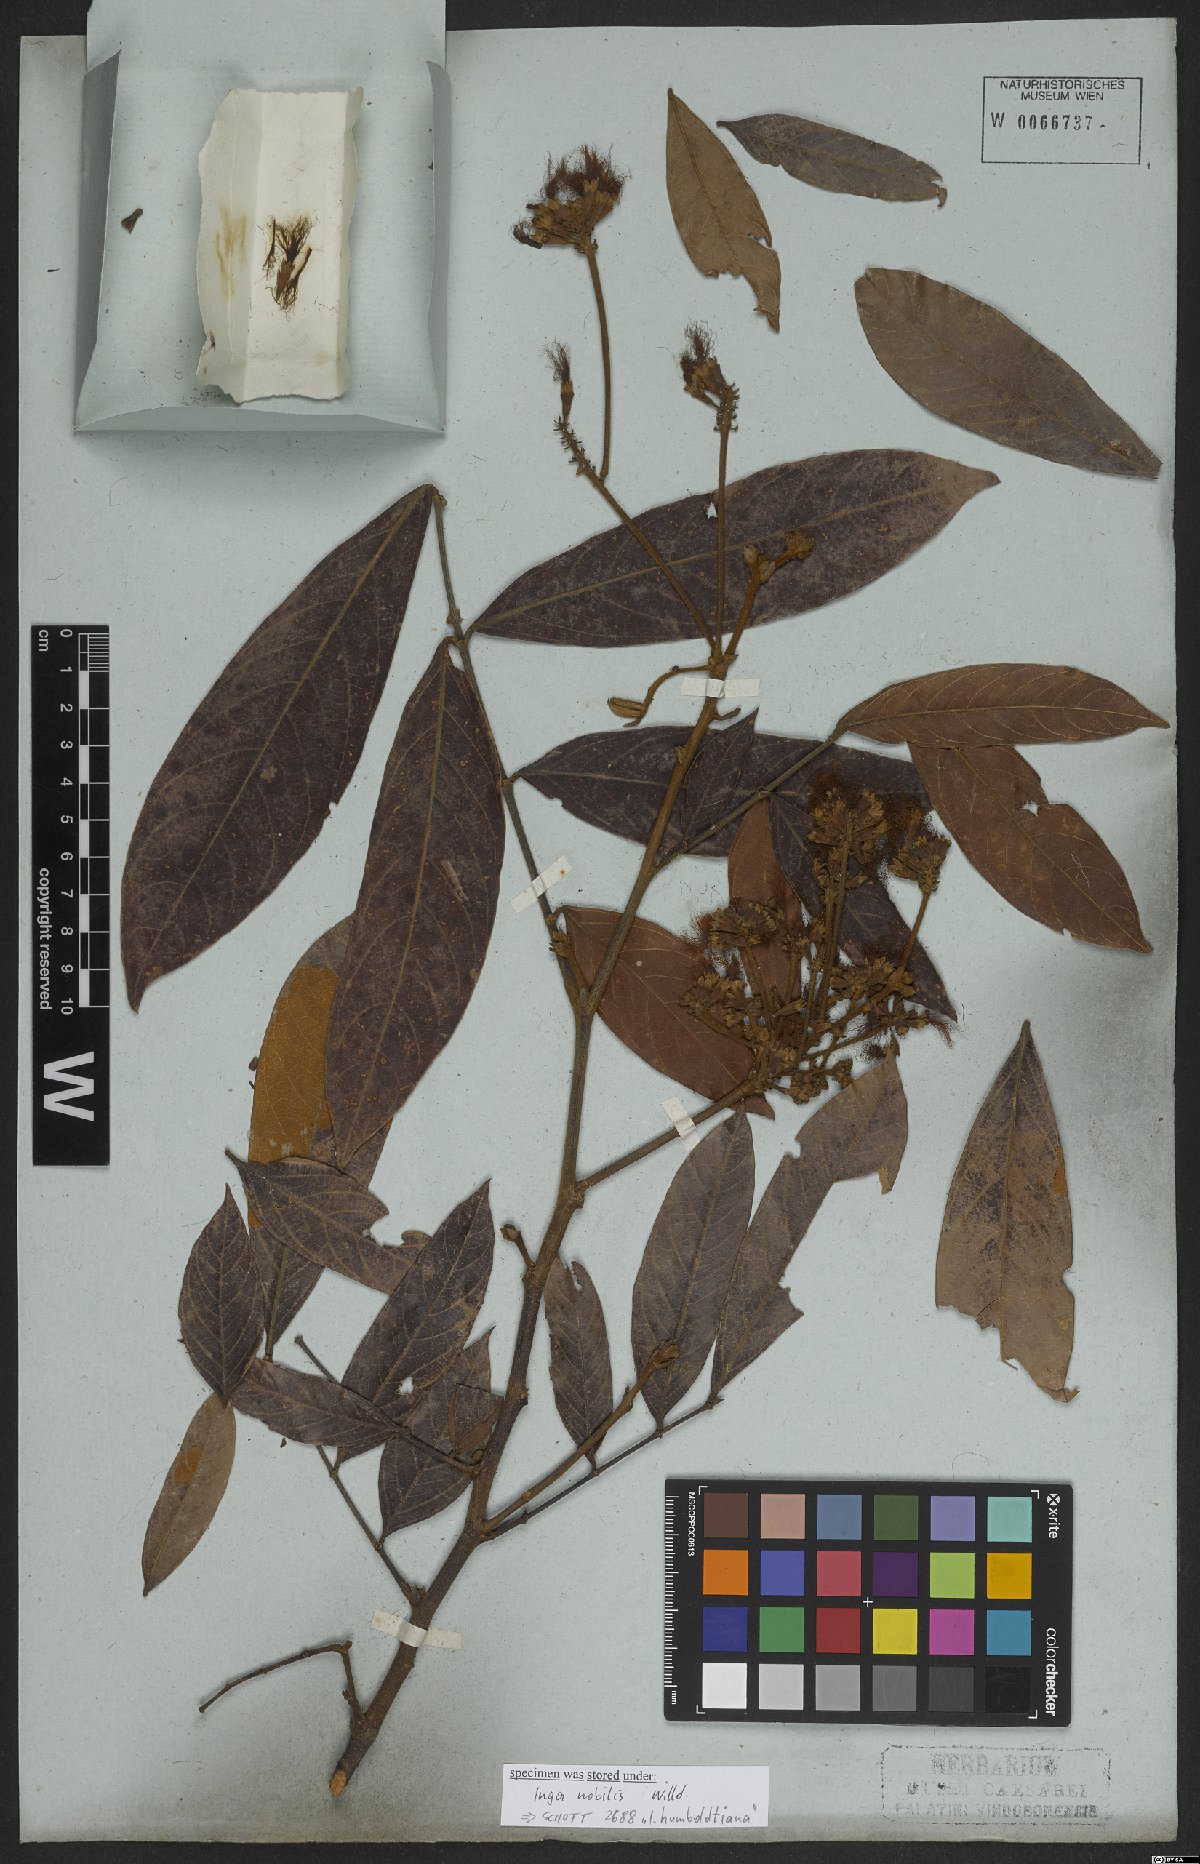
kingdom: Plantae
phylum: Tracheophyta
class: Magnoliopsida
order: Fabales
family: Fabaceae
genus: Inga
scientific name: Inga nobilis
